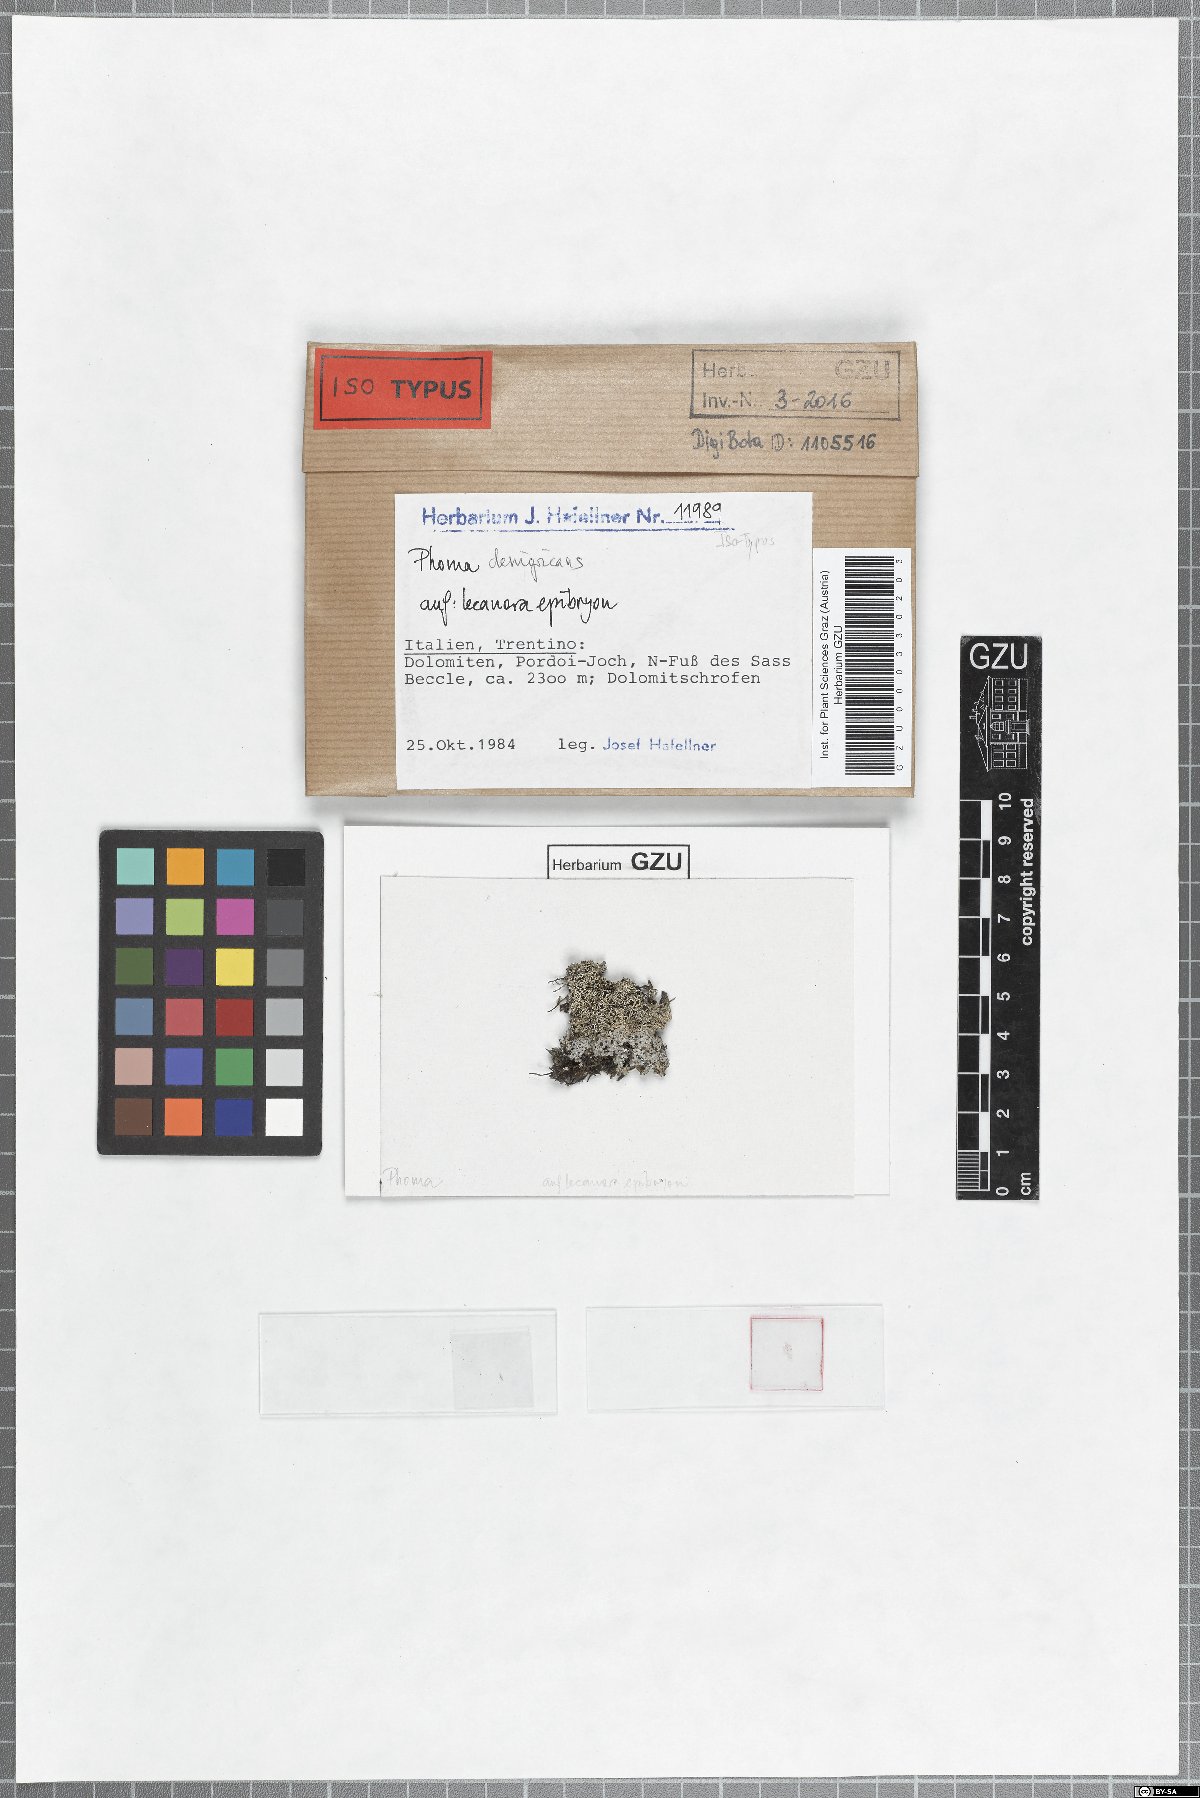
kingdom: Fungi
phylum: Ascomycota
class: Dothideomycetes
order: Pleosporales
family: Didymellaceae
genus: Phoma
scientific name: Phoma denigricans
